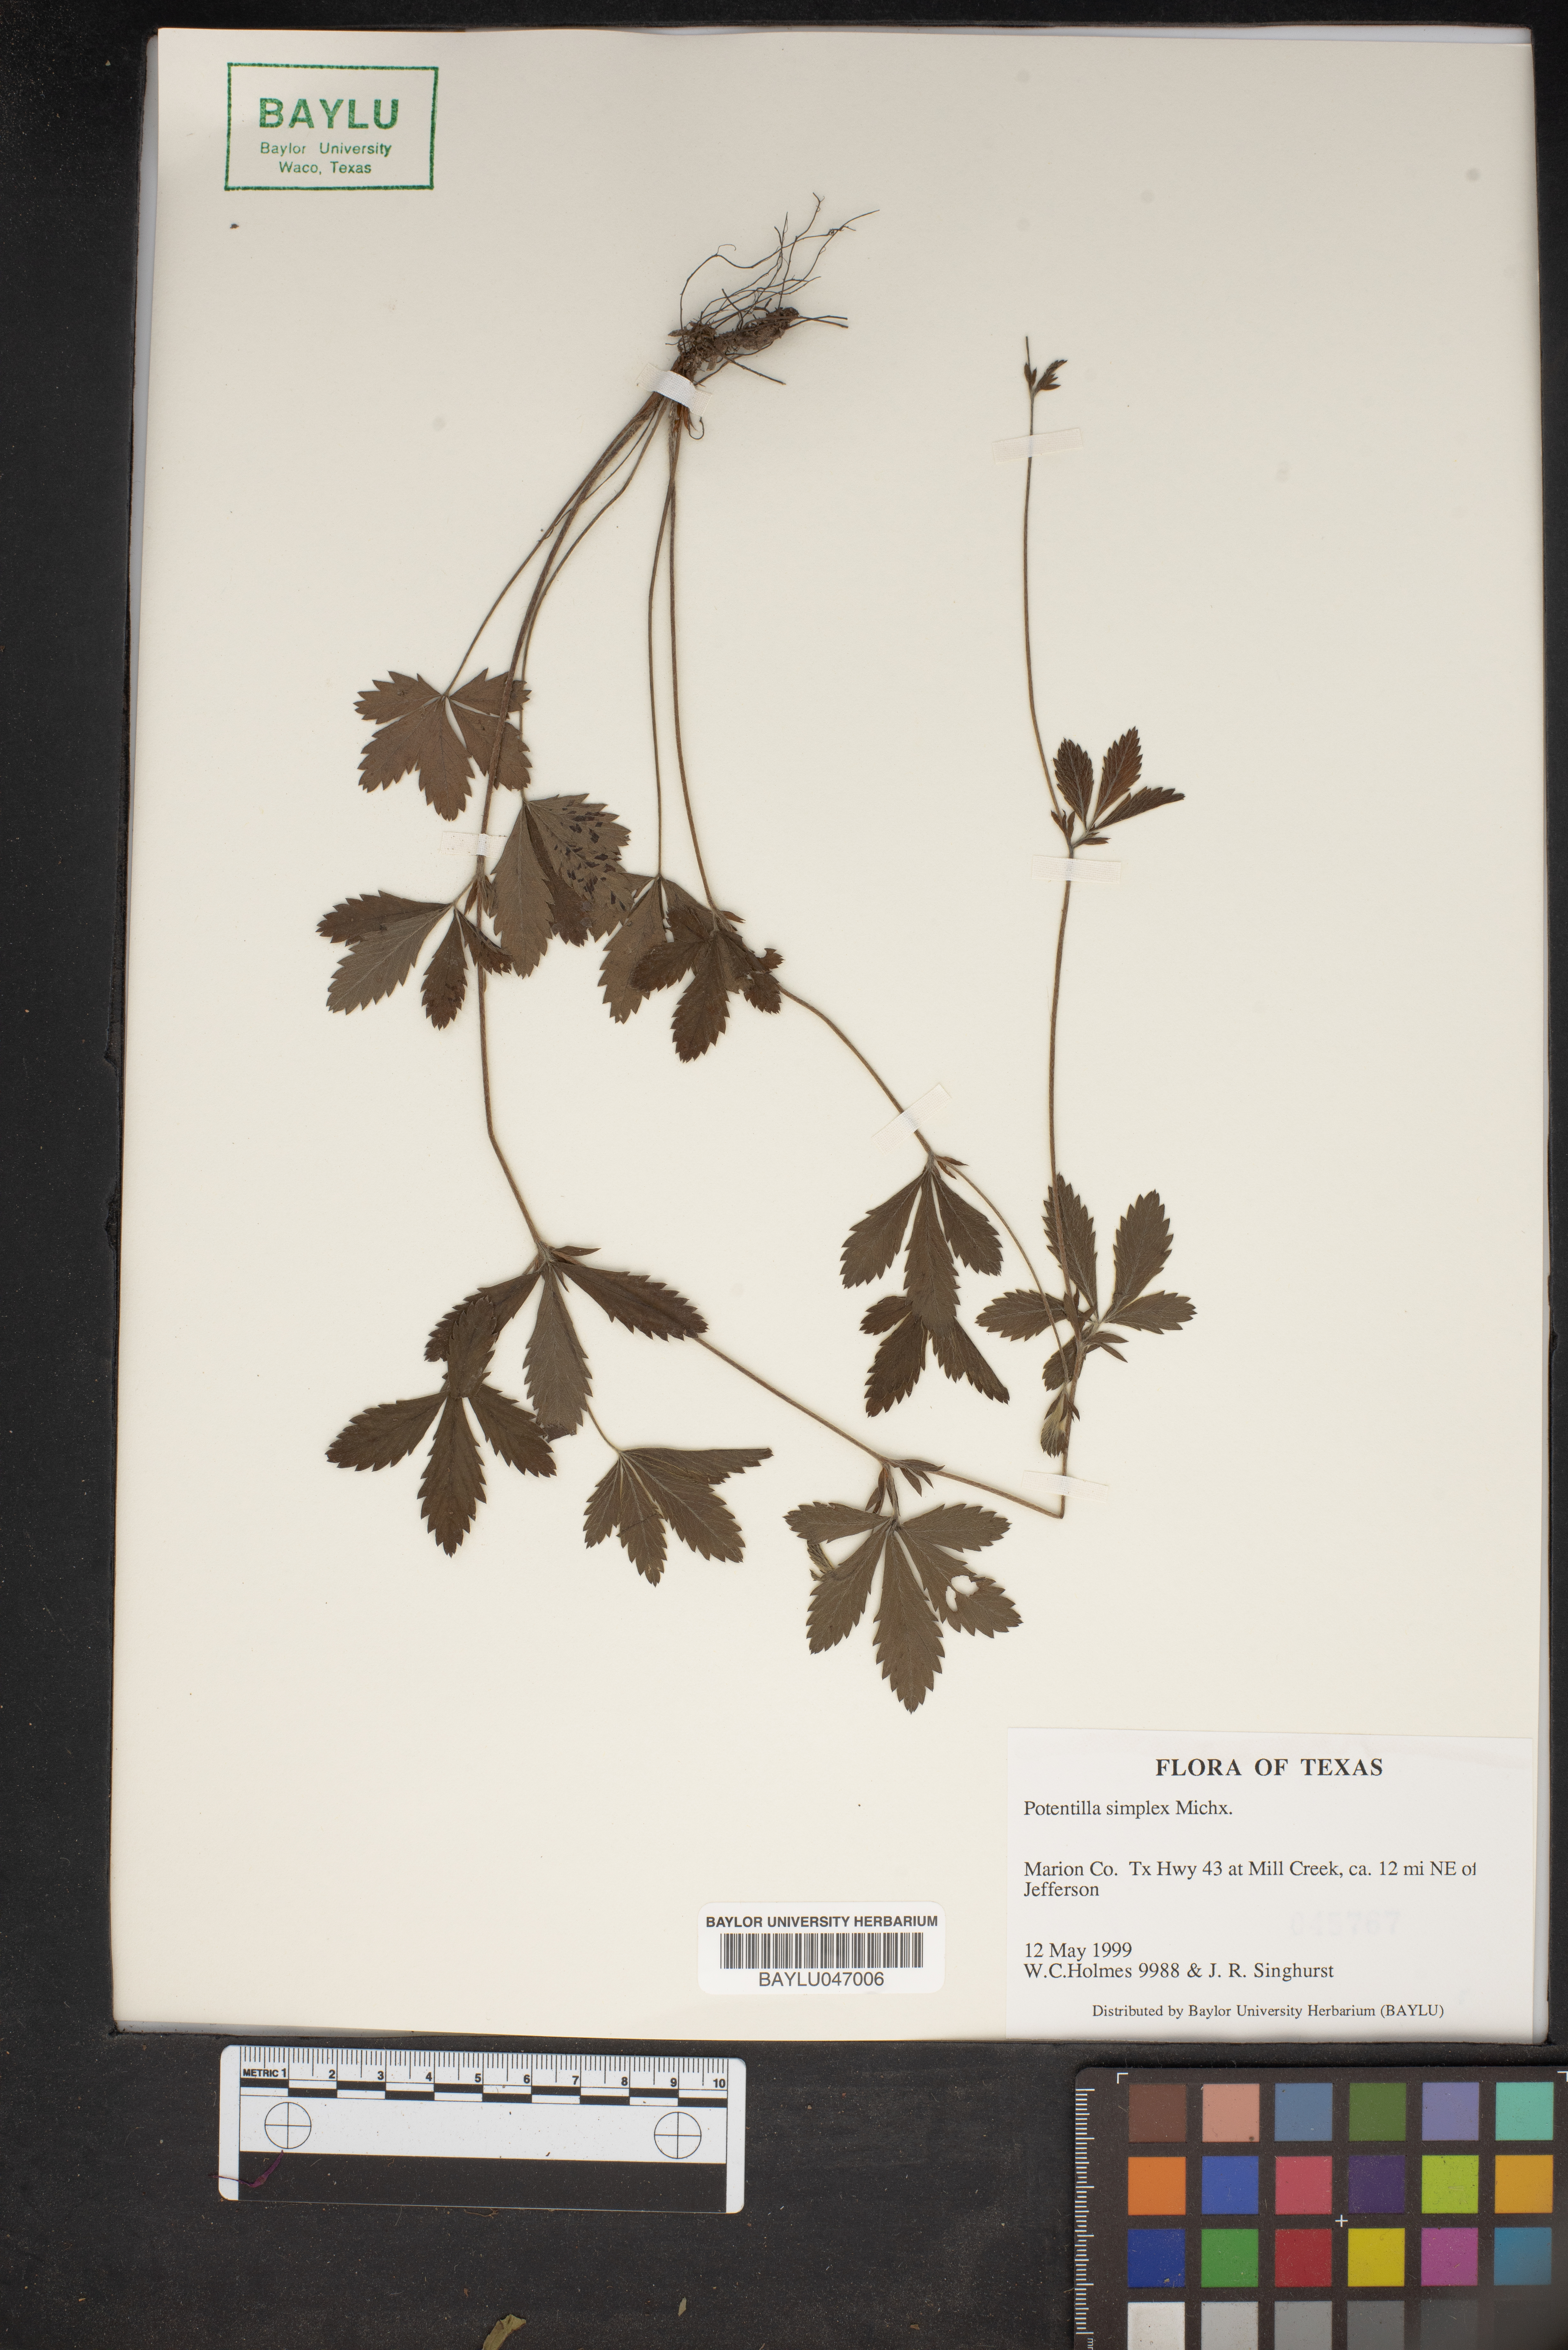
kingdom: Plantae
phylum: Tracheophyta
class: Magnoliopsida
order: Rosales
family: Rosaceae
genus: Potentilla
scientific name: Potentilla simplex
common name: Old field cinquefoil
